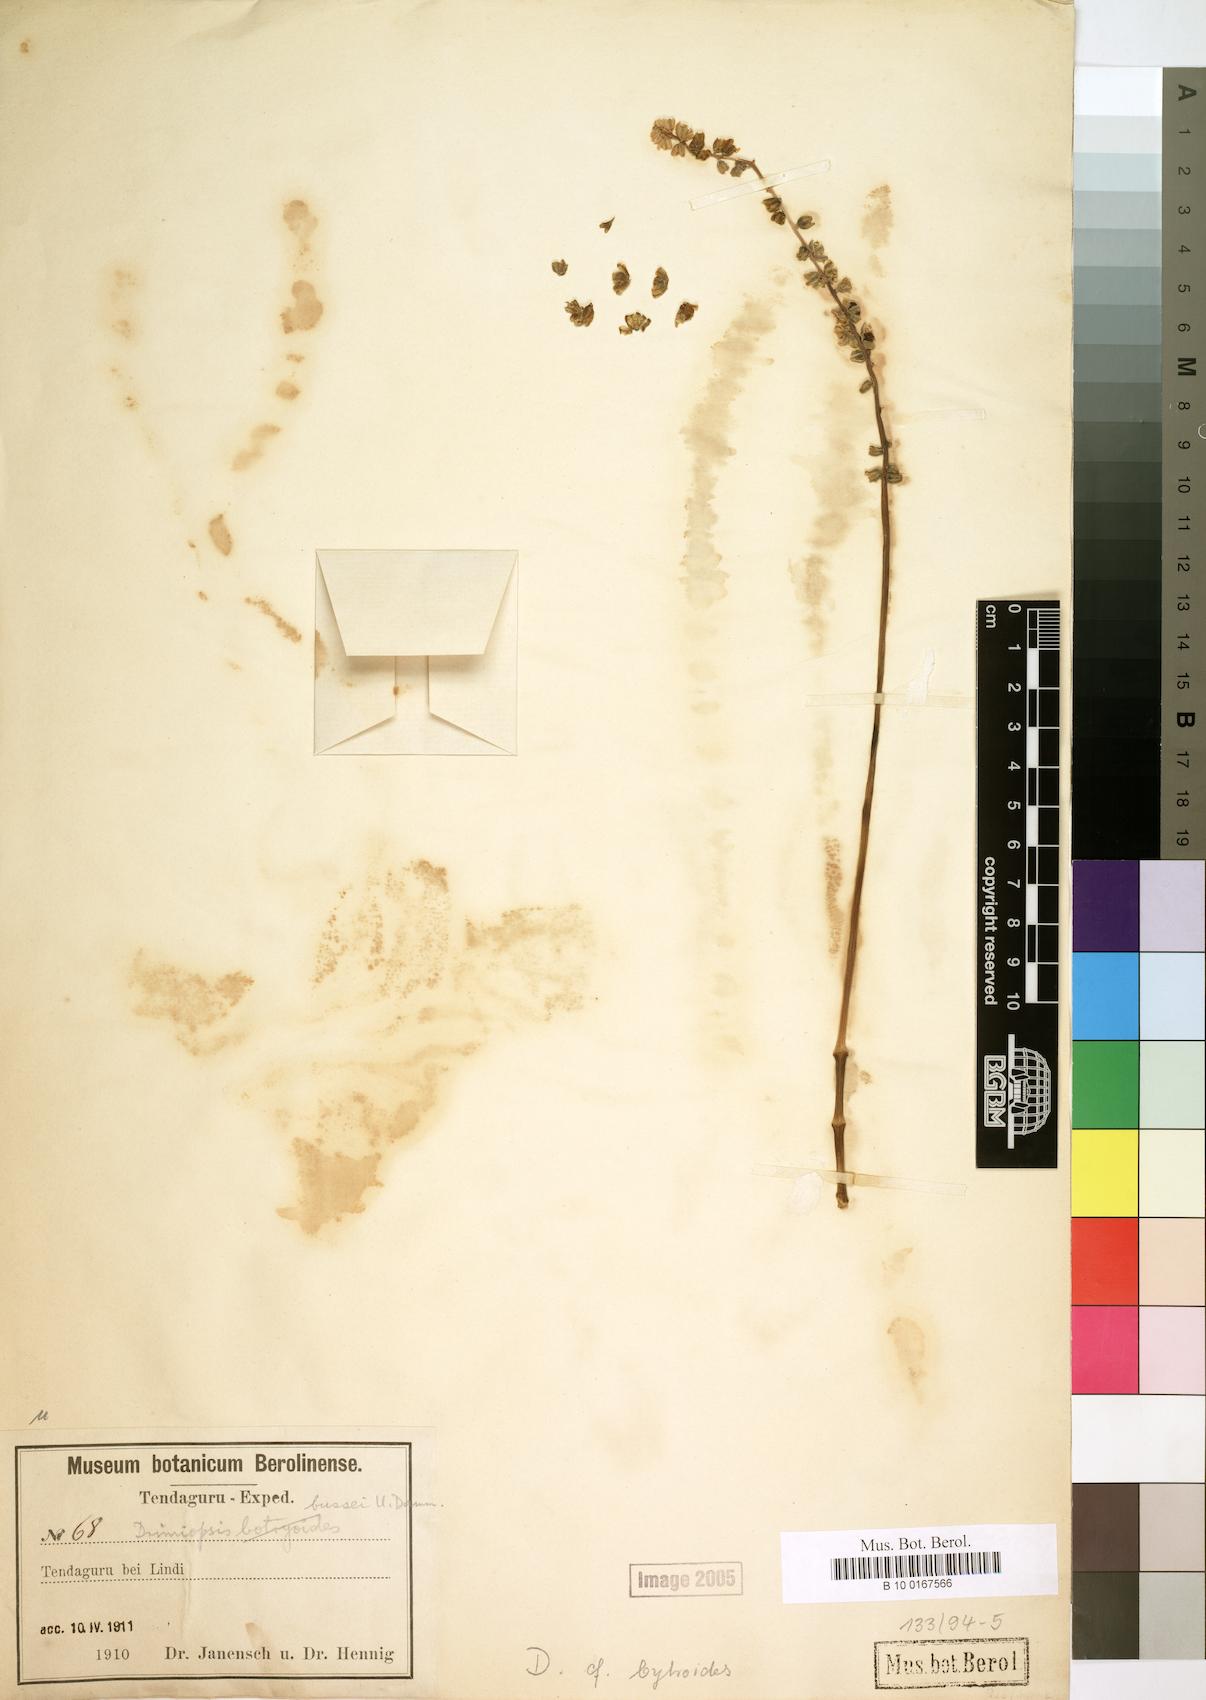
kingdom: Plantae
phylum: Tracheophyta
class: Liliopsida
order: Asparagales
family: Asparagaceae
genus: Drimiopsis
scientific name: Drimiopsis botryoides
